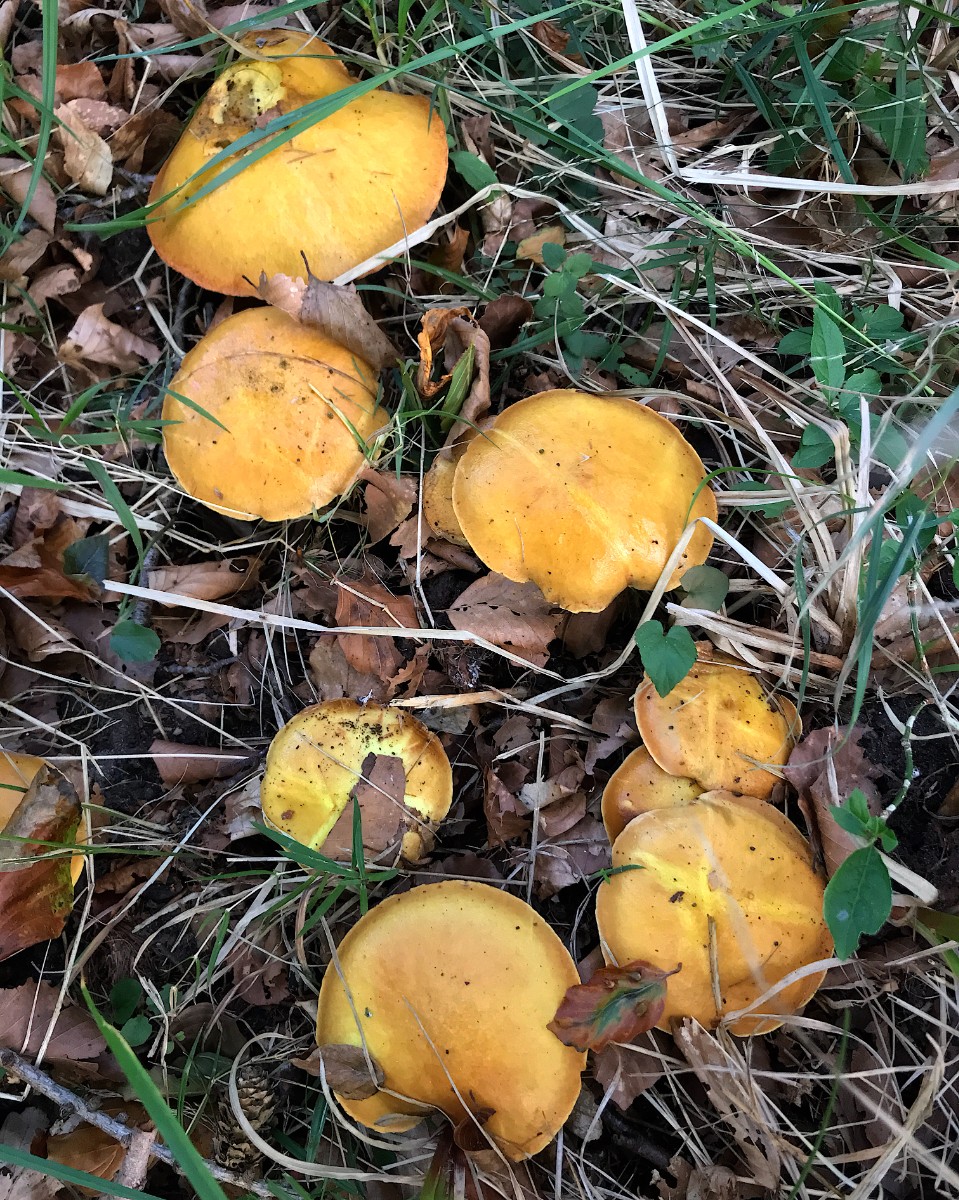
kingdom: Fungi
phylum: Basidiomycota
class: Agaricomycetes
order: Boletales
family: Suillaceae
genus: Suillus
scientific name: Suillus grevillei
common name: lærke-slimrørhat
